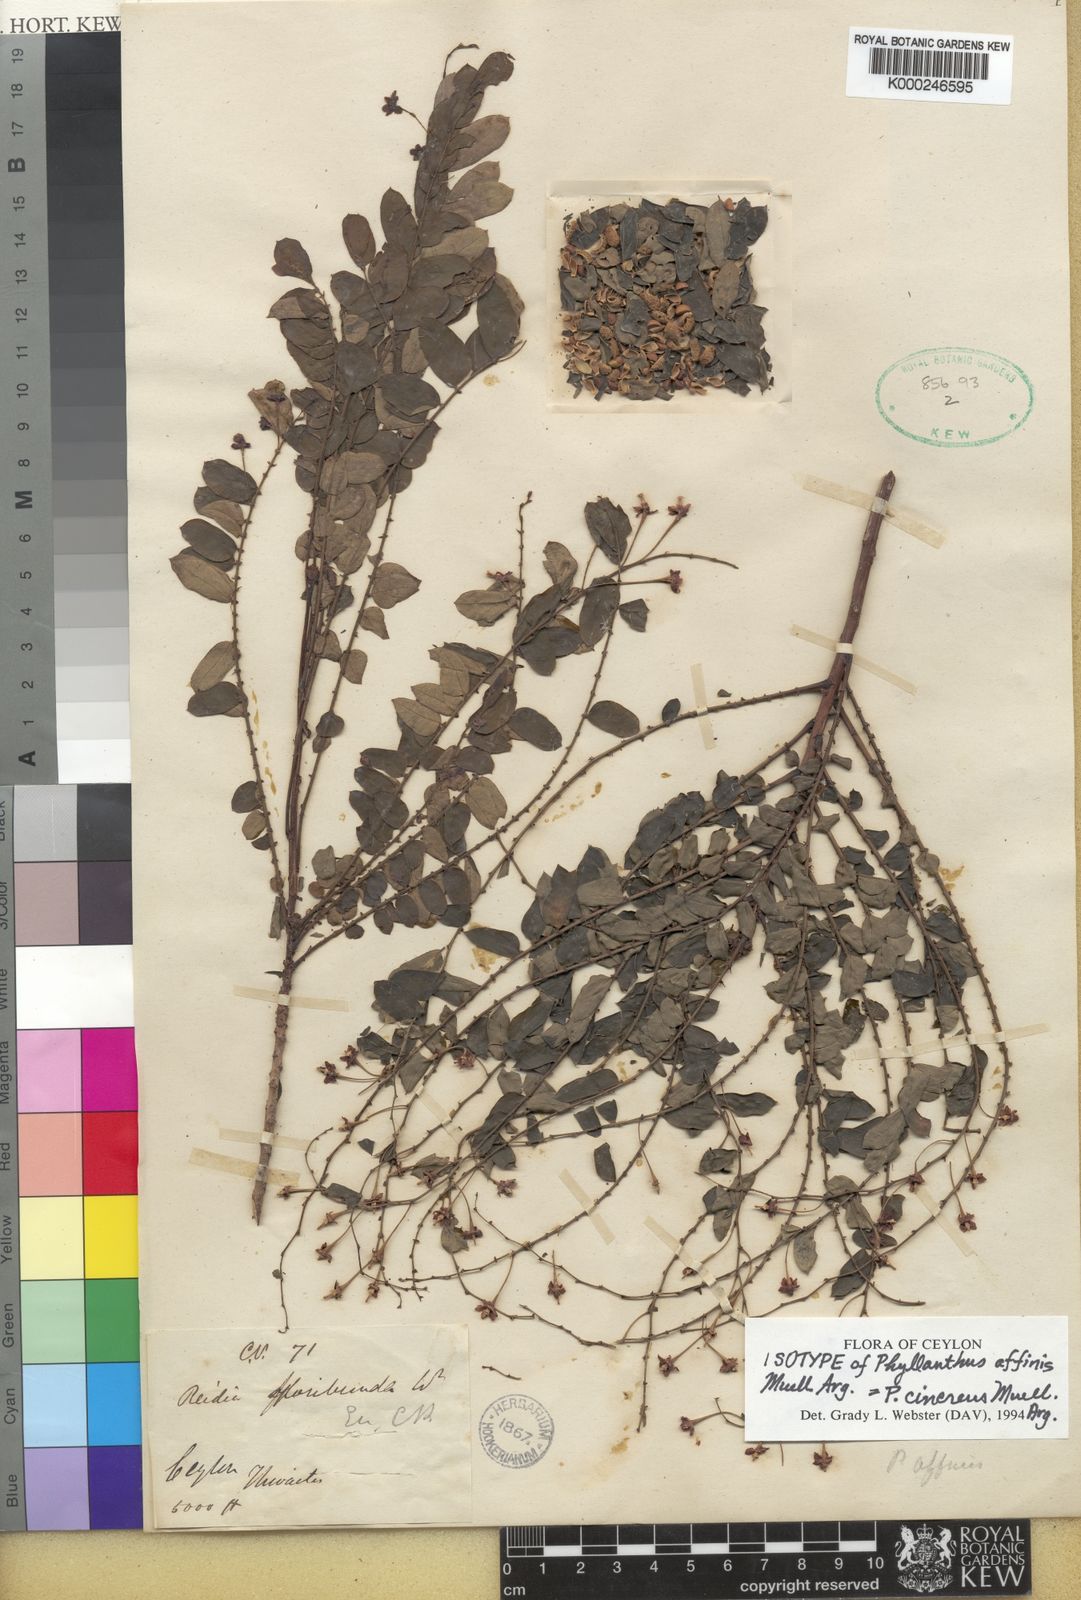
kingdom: Plantae
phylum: Tracheophyta
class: Magnoliopsida
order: Malpighiales
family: Phyllanthaceae
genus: Phyllanthus
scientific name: Phyllanthus
